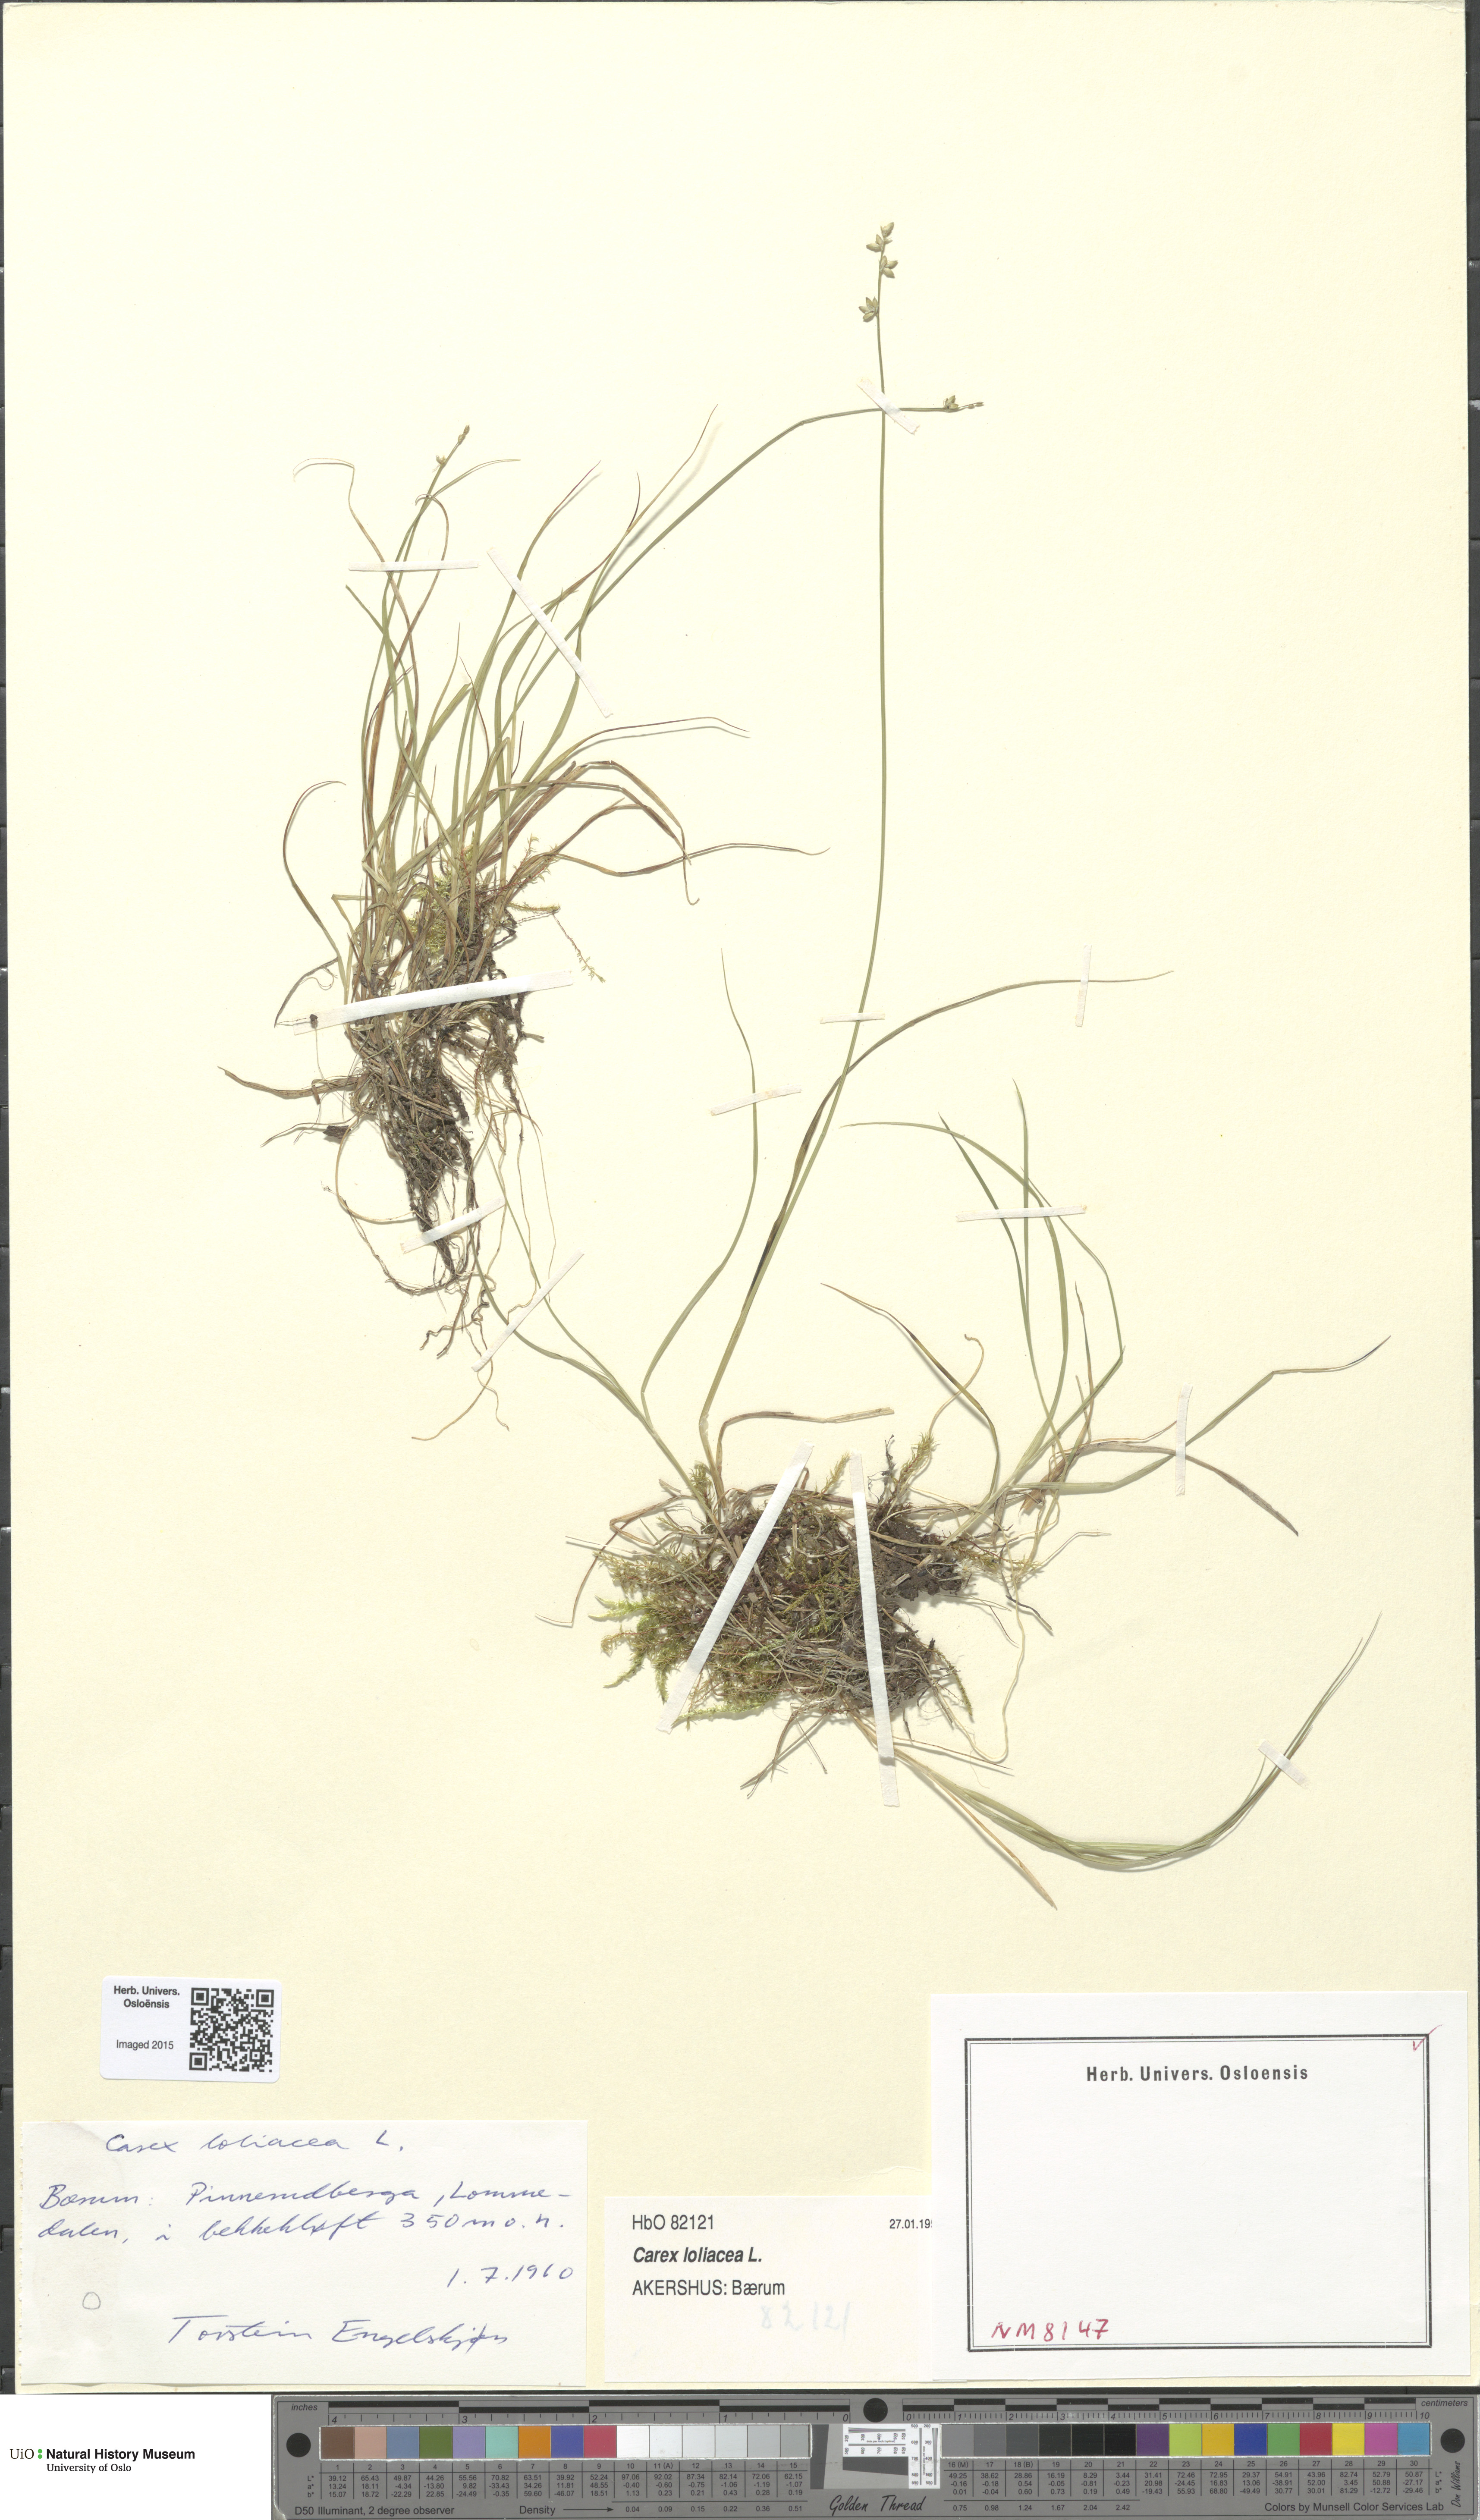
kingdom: Plantae
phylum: Tracheophyta
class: Liliopsida
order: Poales
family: Cyperaceae
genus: Carex
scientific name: Carex loliacea
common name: Ryegrass sedge
